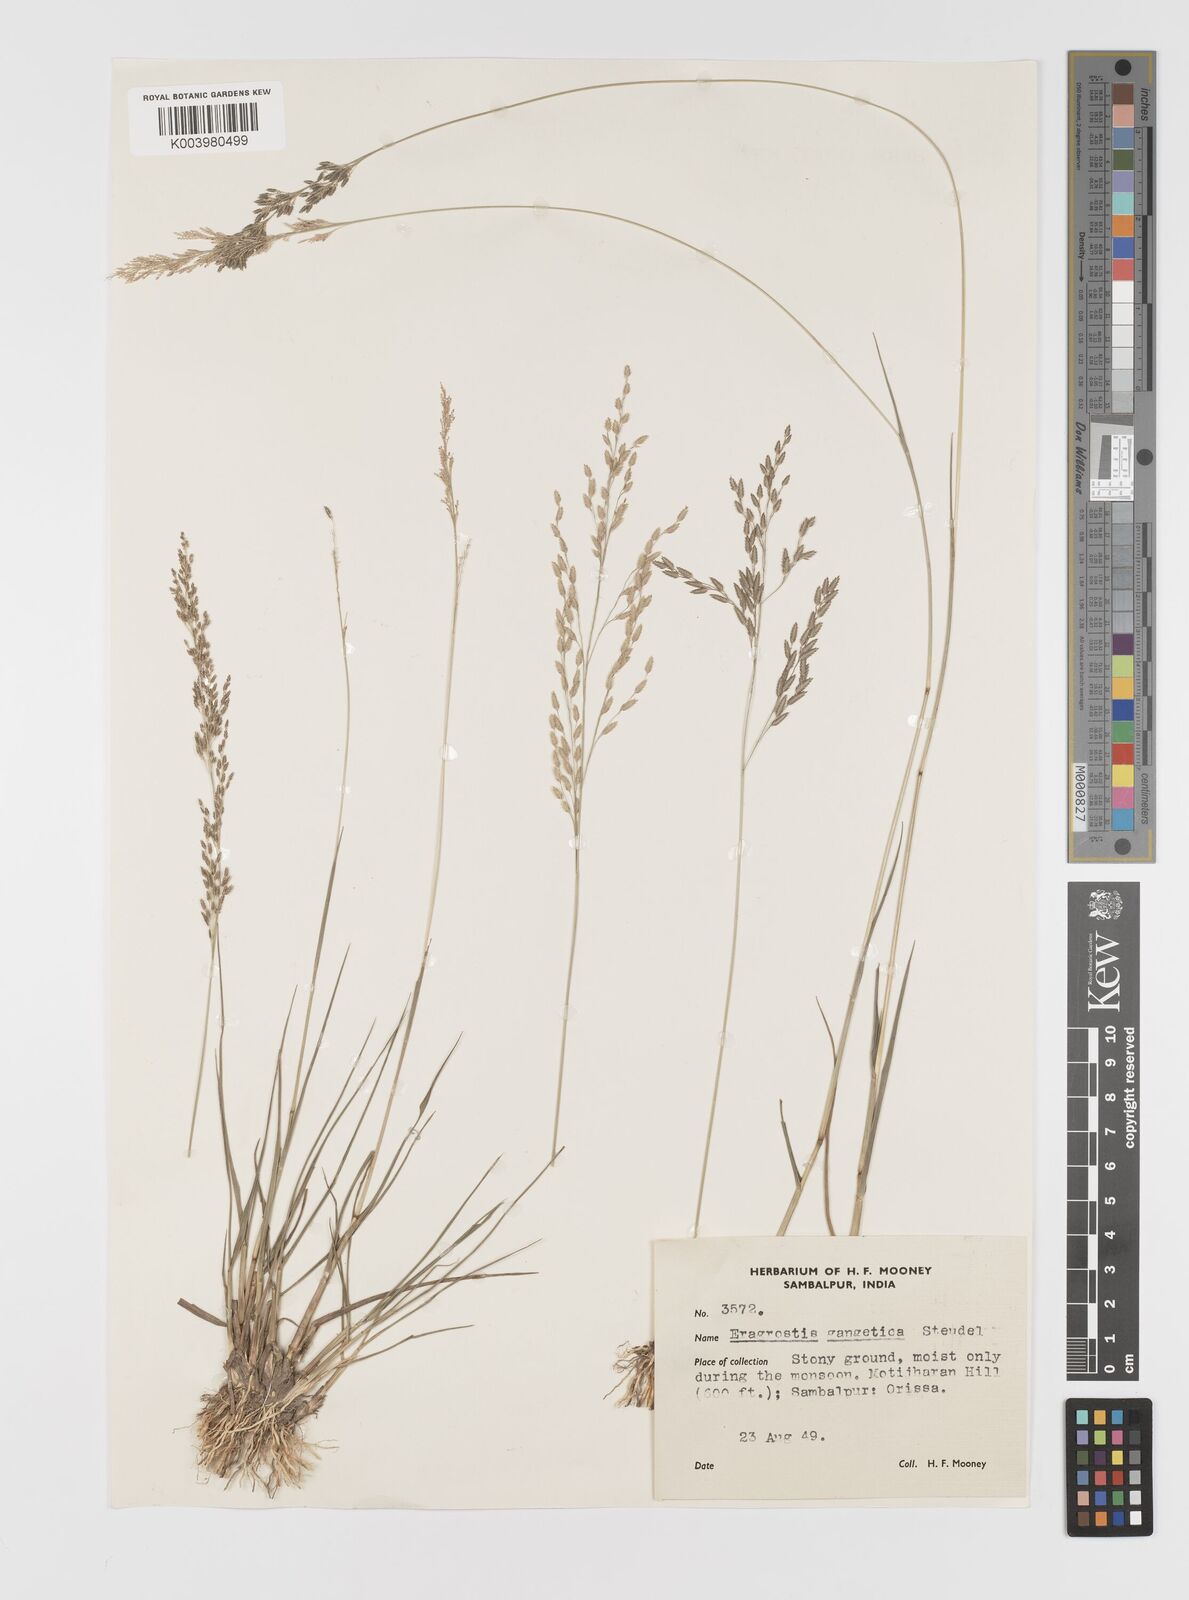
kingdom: Plantae
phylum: Tracheophyta
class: Liliopsida
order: Poales
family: Poaceae
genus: Eragrostis
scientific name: Eragrostis
